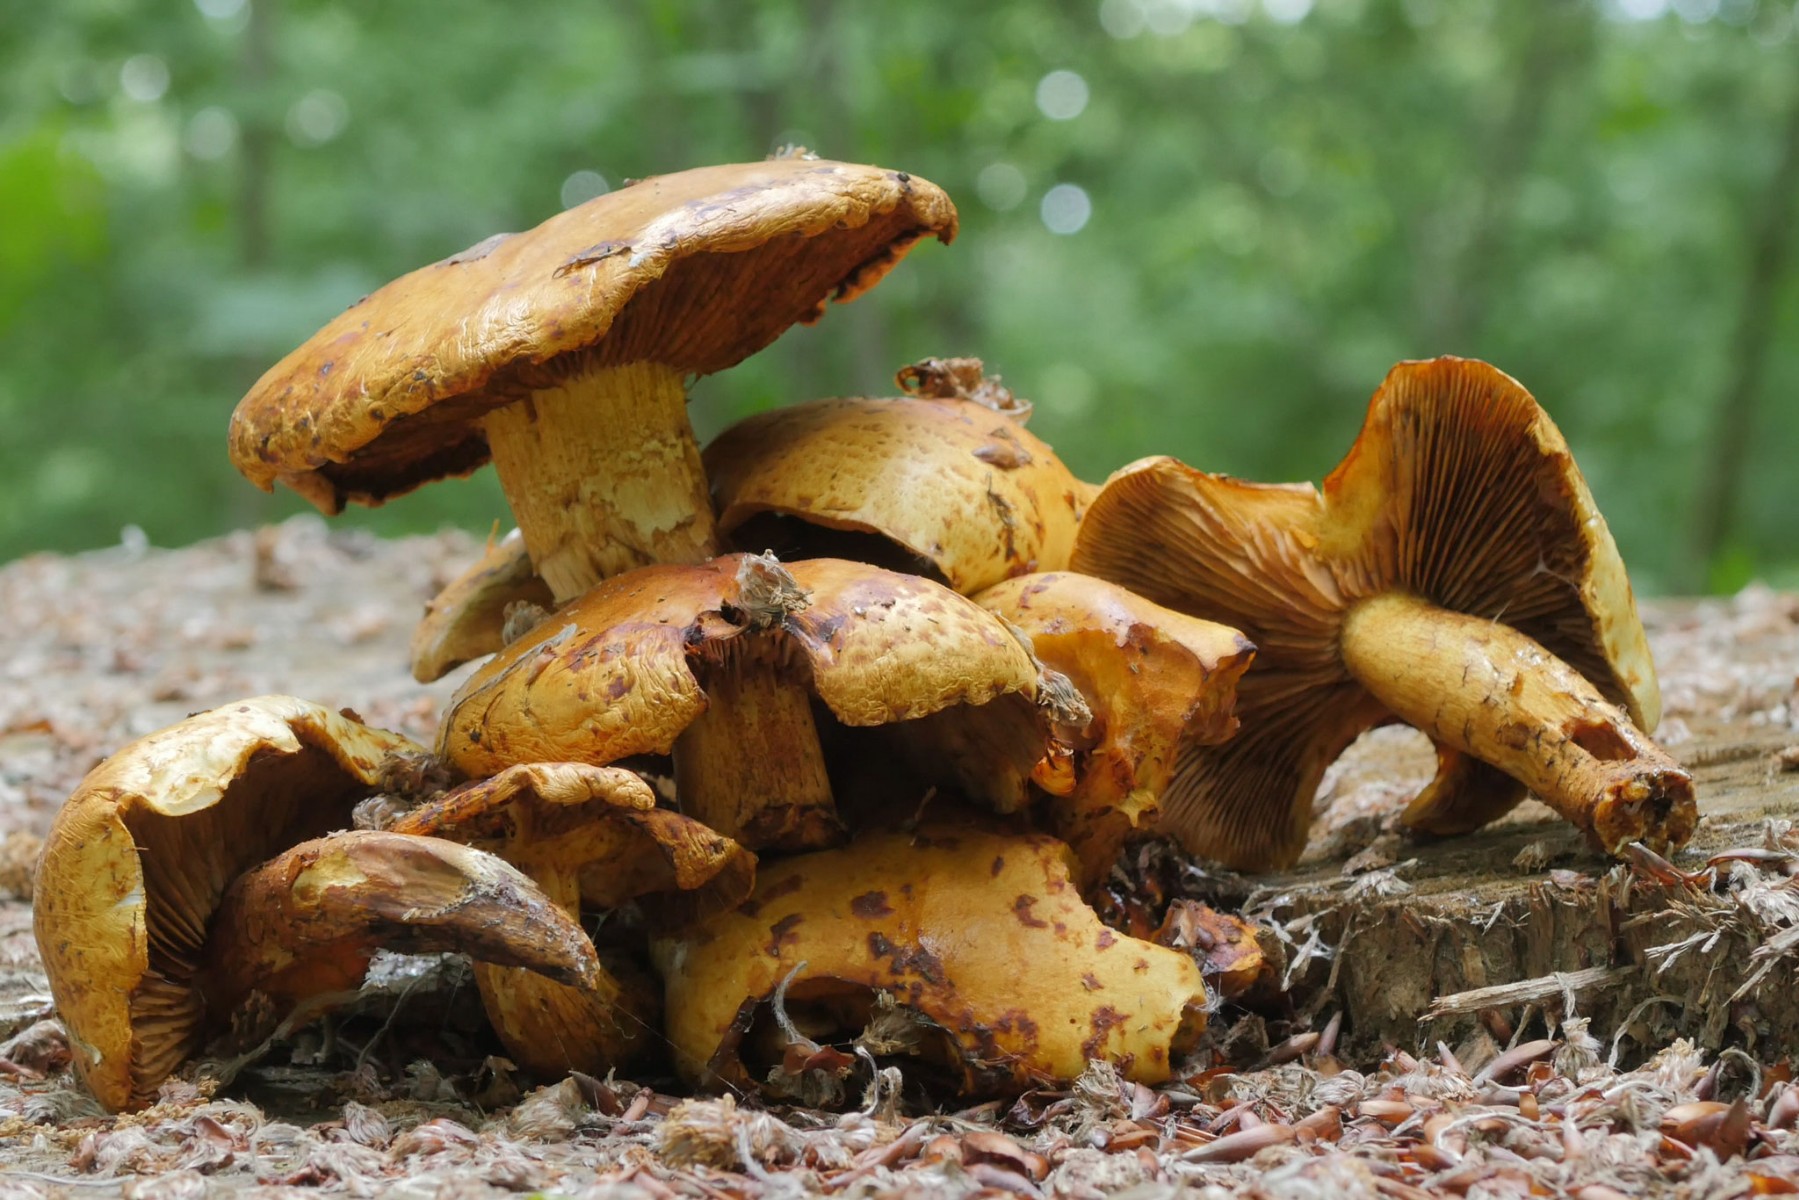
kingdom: Fungi
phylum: Basidiomycota
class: Agaricomycetes
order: Agaricales
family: Strophariaceae
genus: Pholiota
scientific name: Pholiota adiposa
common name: højtsiddende skælhat
